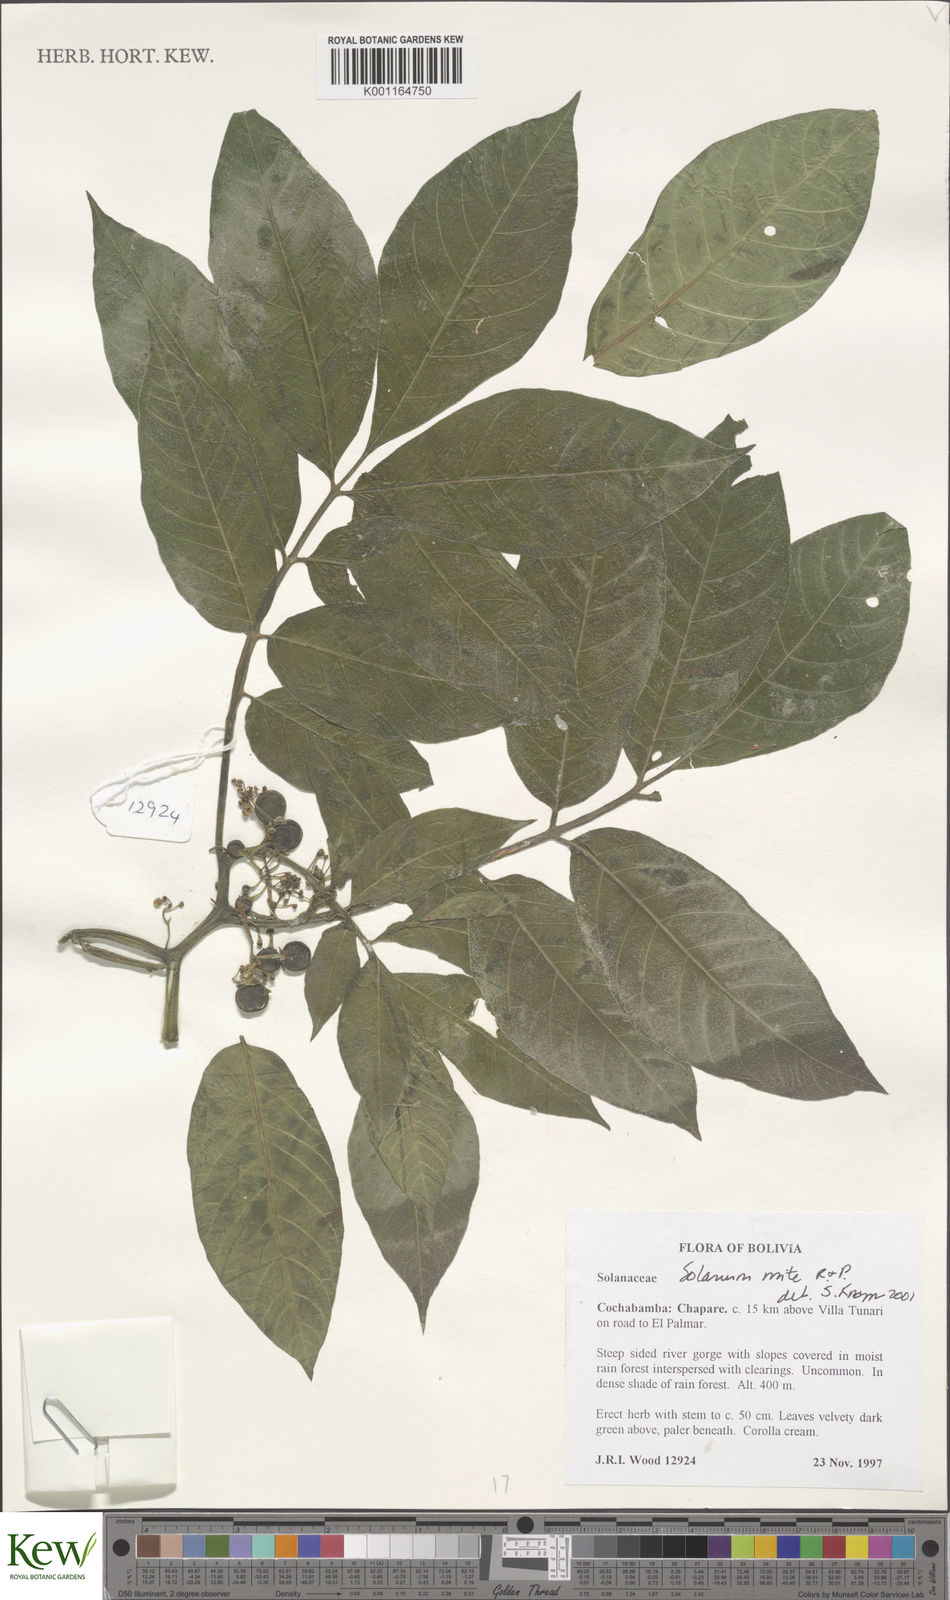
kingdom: Plantae
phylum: Tracheophyta
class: Magnoliopsida
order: Solanales
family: Solanaceae
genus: Solanum
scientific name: Solanum mite
